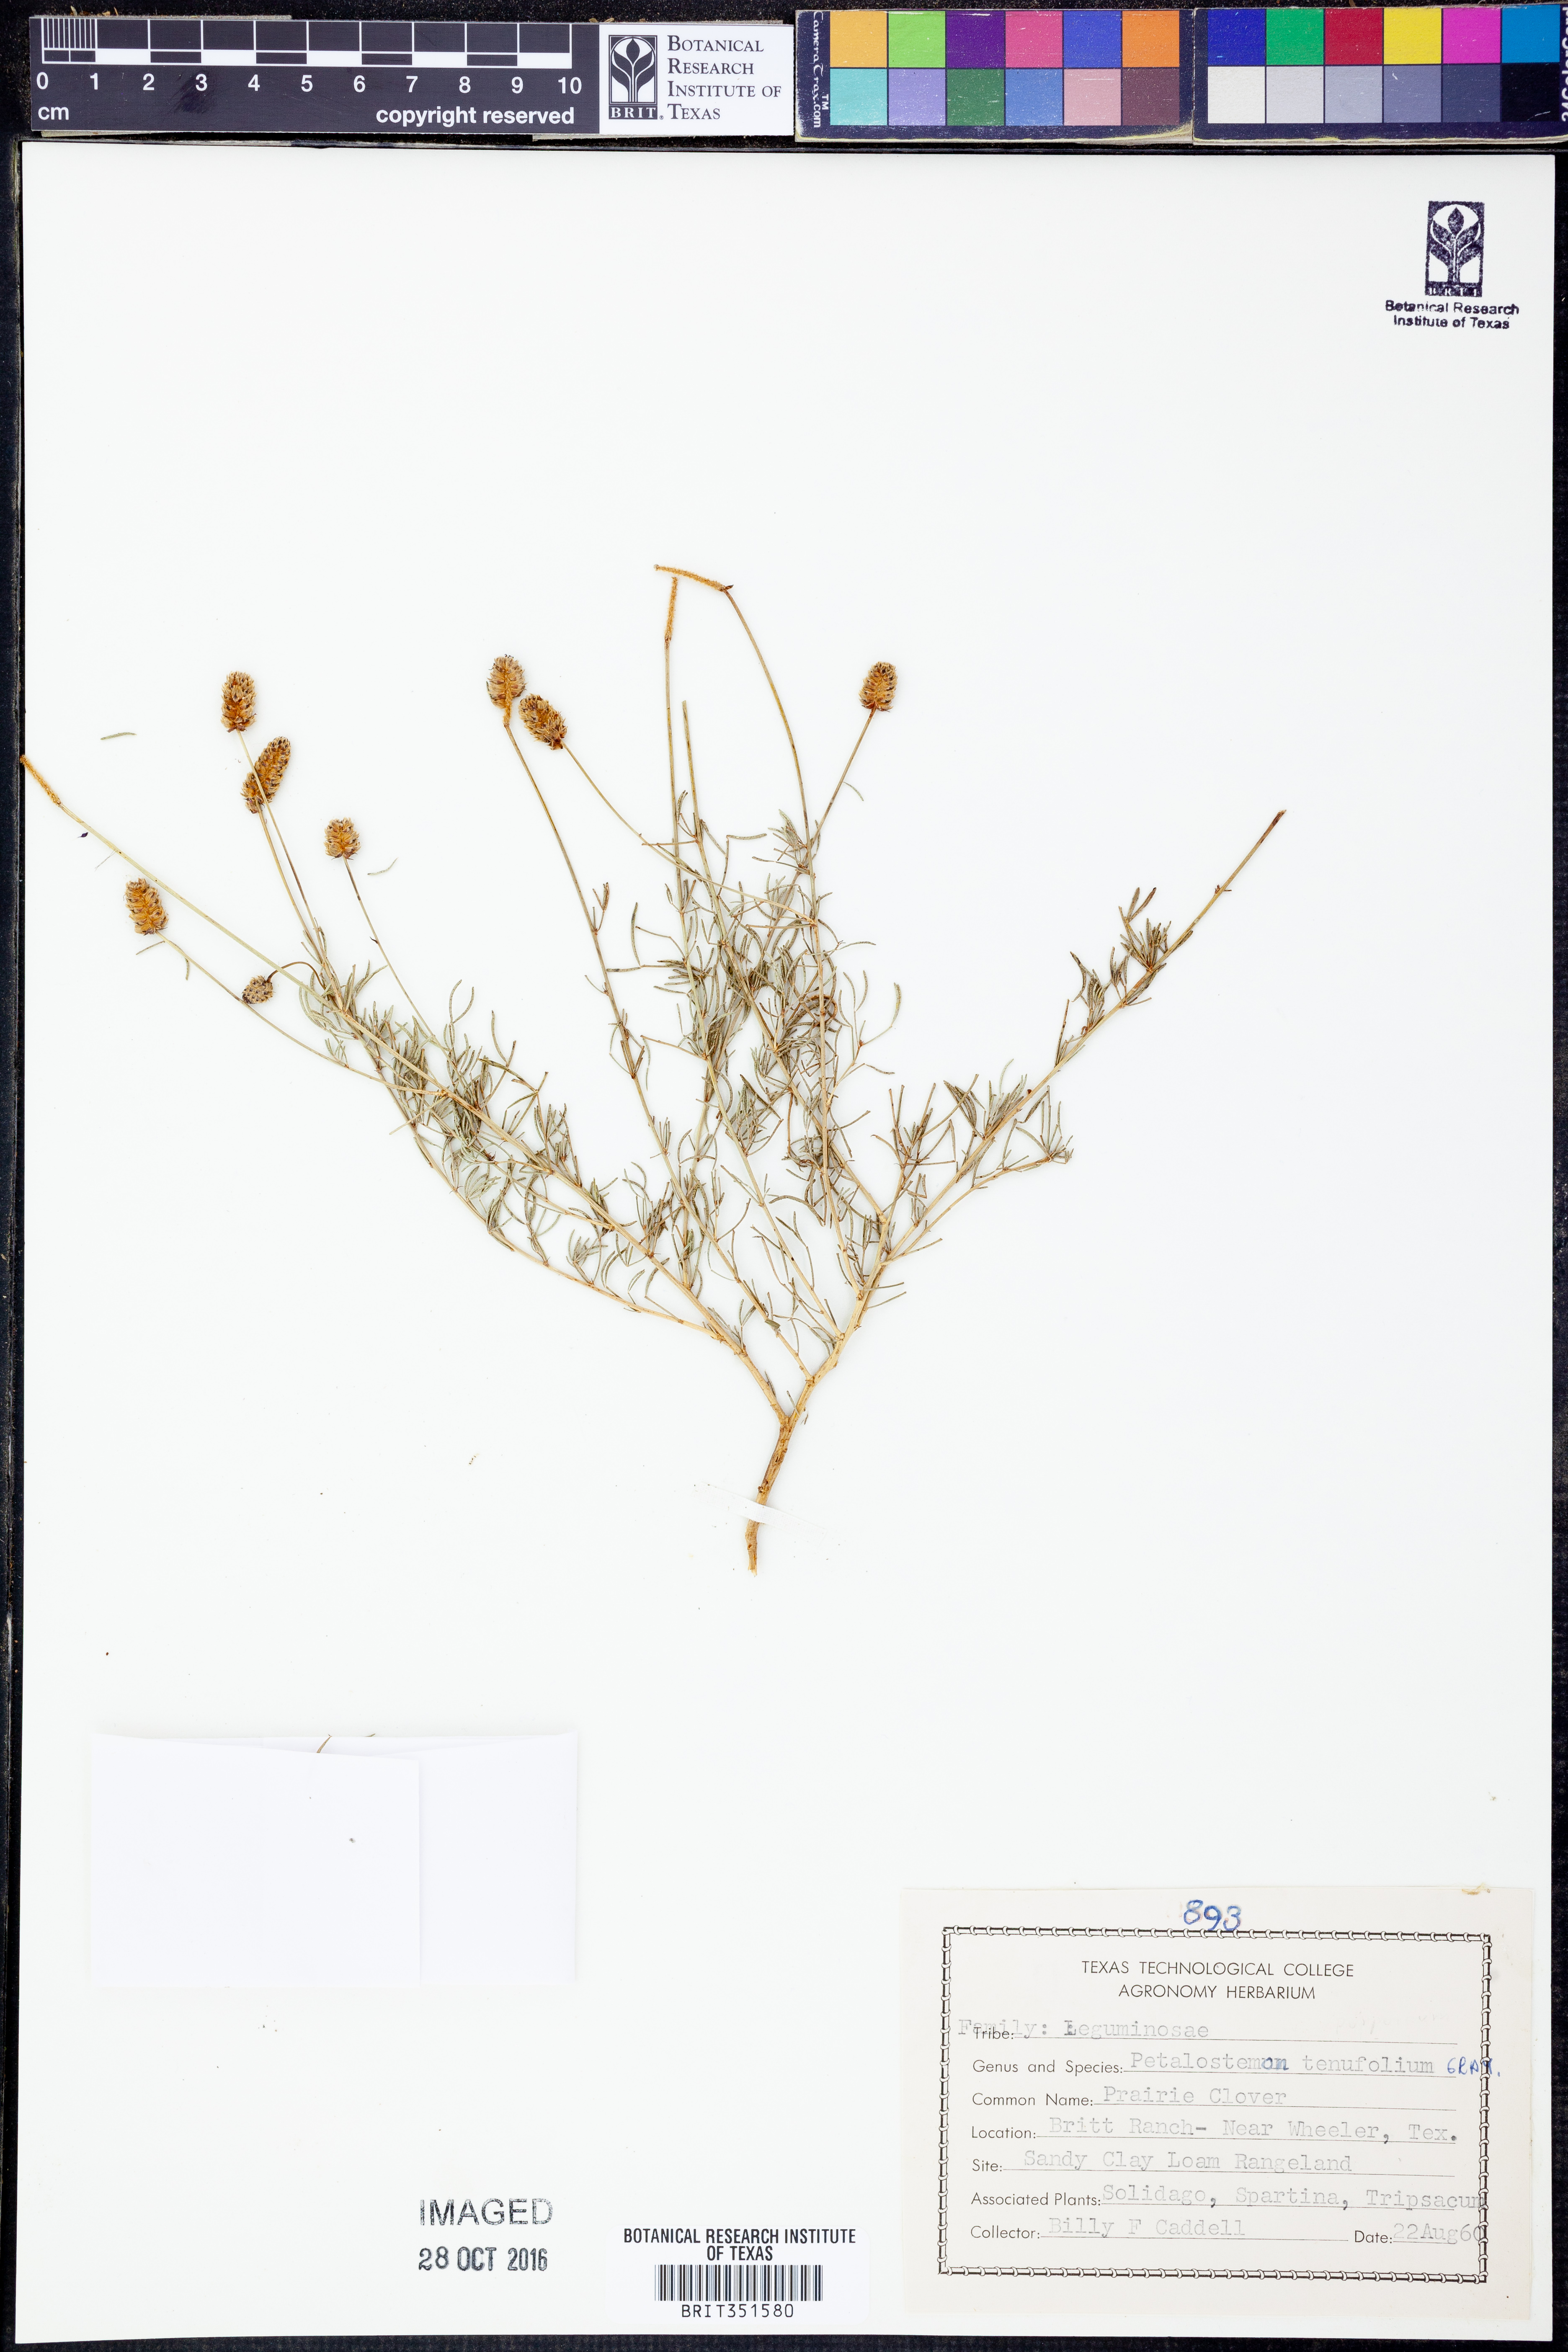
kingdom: Plantae
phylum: Tracheophyta
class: Magnoliopsida
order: Fabales
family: Fabaceae
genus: Dalea
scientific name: Dalea tenuifolia
